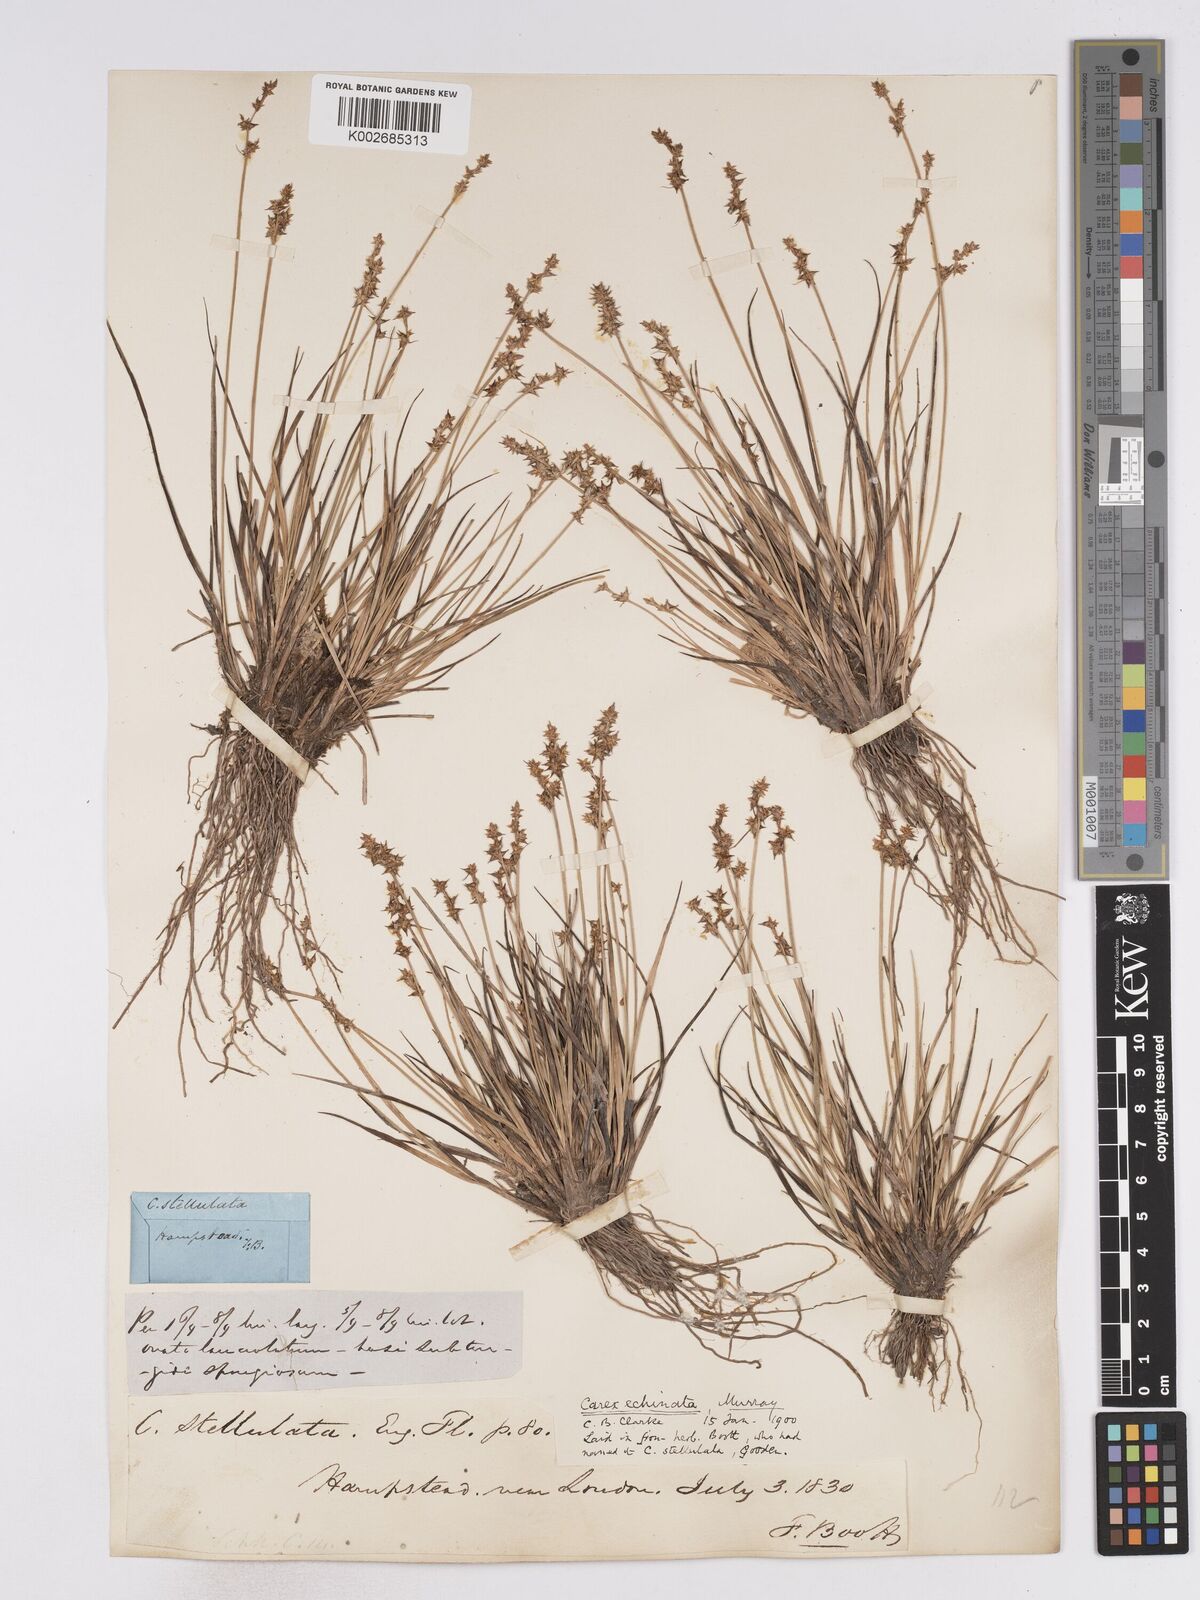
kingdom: Plantae
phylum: Tracheophyta
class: Liliopsida
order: Poales
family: Cyperaceae
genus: Carex
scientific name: Carex echinata
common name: Star sedge
